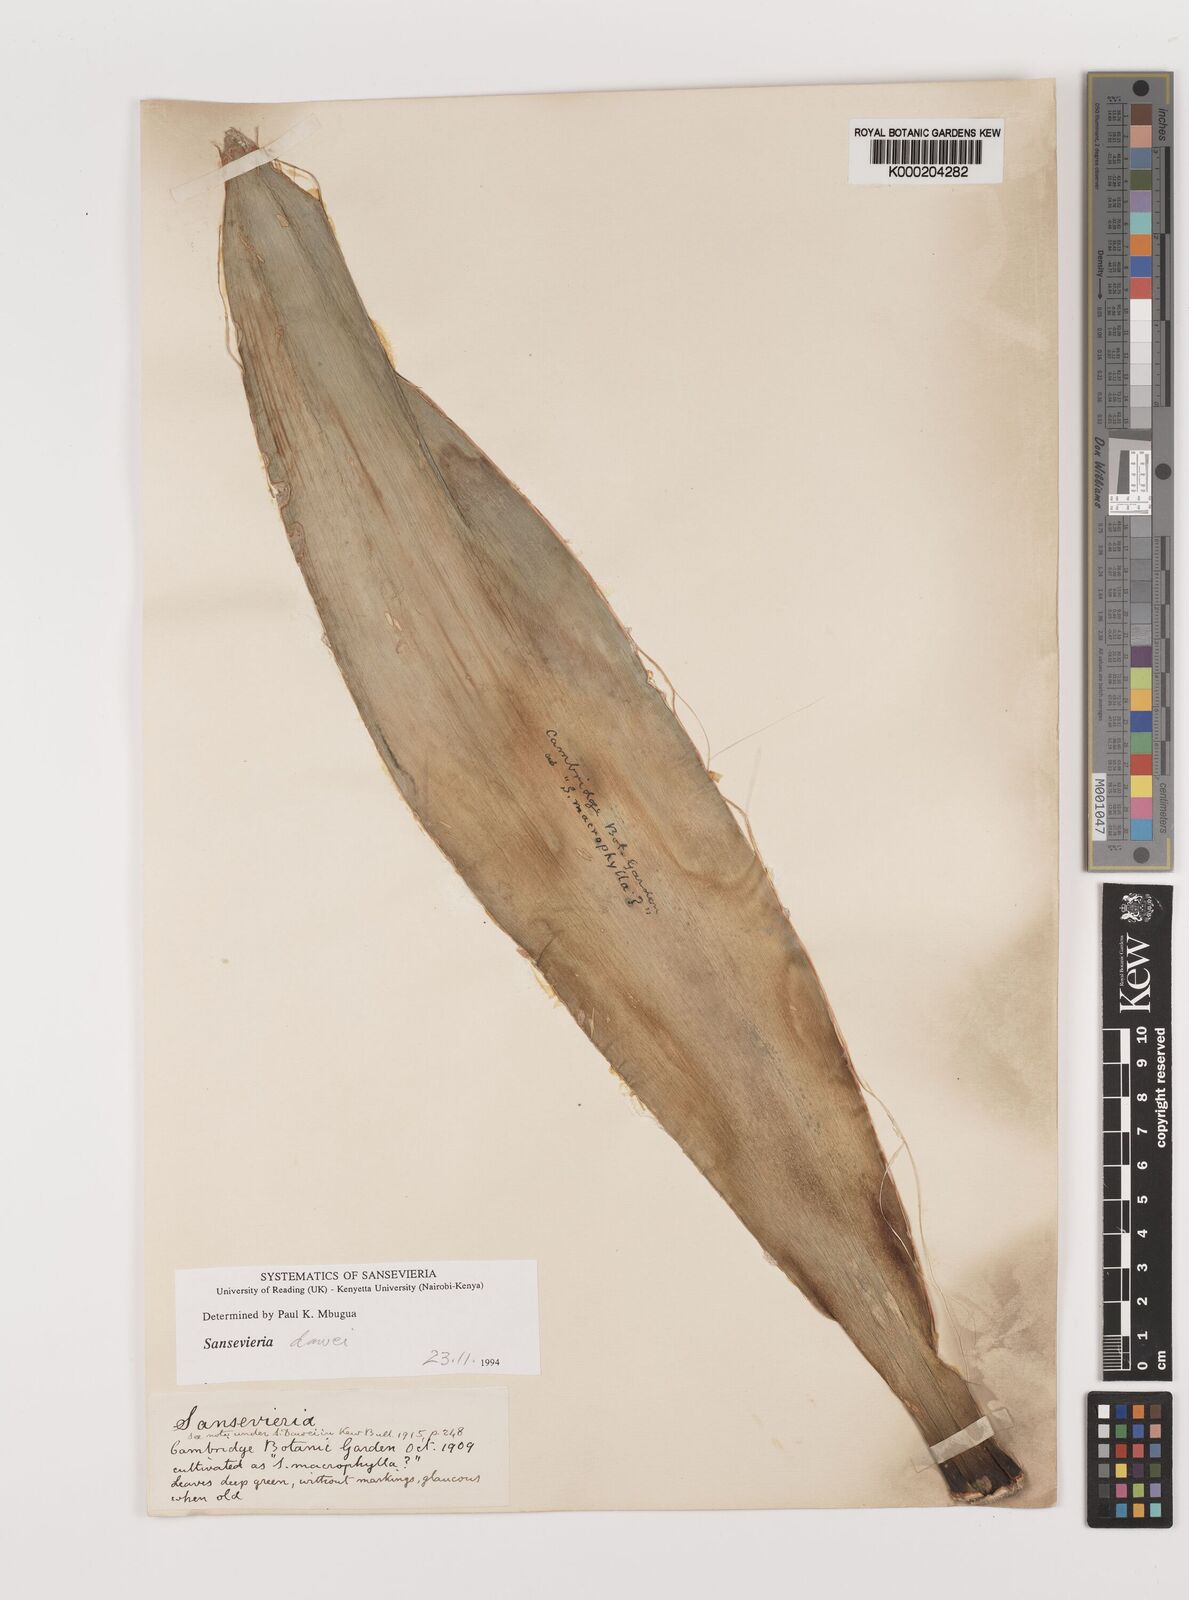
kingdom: Plantae
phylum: Tracheophyta
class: Liliopsida
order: Asparagales
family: Asparagaceae
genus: Dracaena
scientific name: Dracaena dawei
